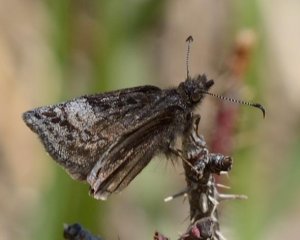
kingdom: Animalia
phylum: Arthropoda
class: Insecta
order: Lepidoptera
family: Hesperiidae
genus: Erynnis
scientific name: Erynnis icelus
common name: Dreamy Duskywing
